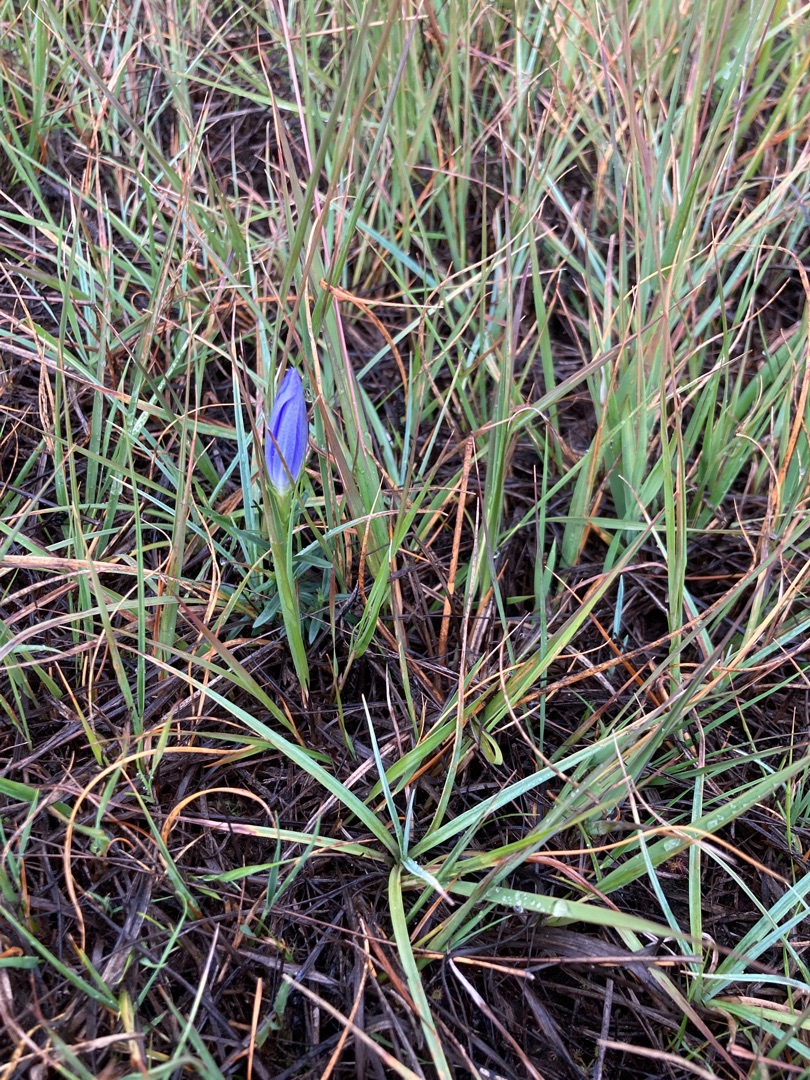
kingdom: Plantae
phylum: Tracheophyta
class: Magnoliopsida
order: Gentianales
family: Gentianaceae
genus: Gentiana
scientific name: Gentiana pneumonanthe
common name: Klokke-ensian
